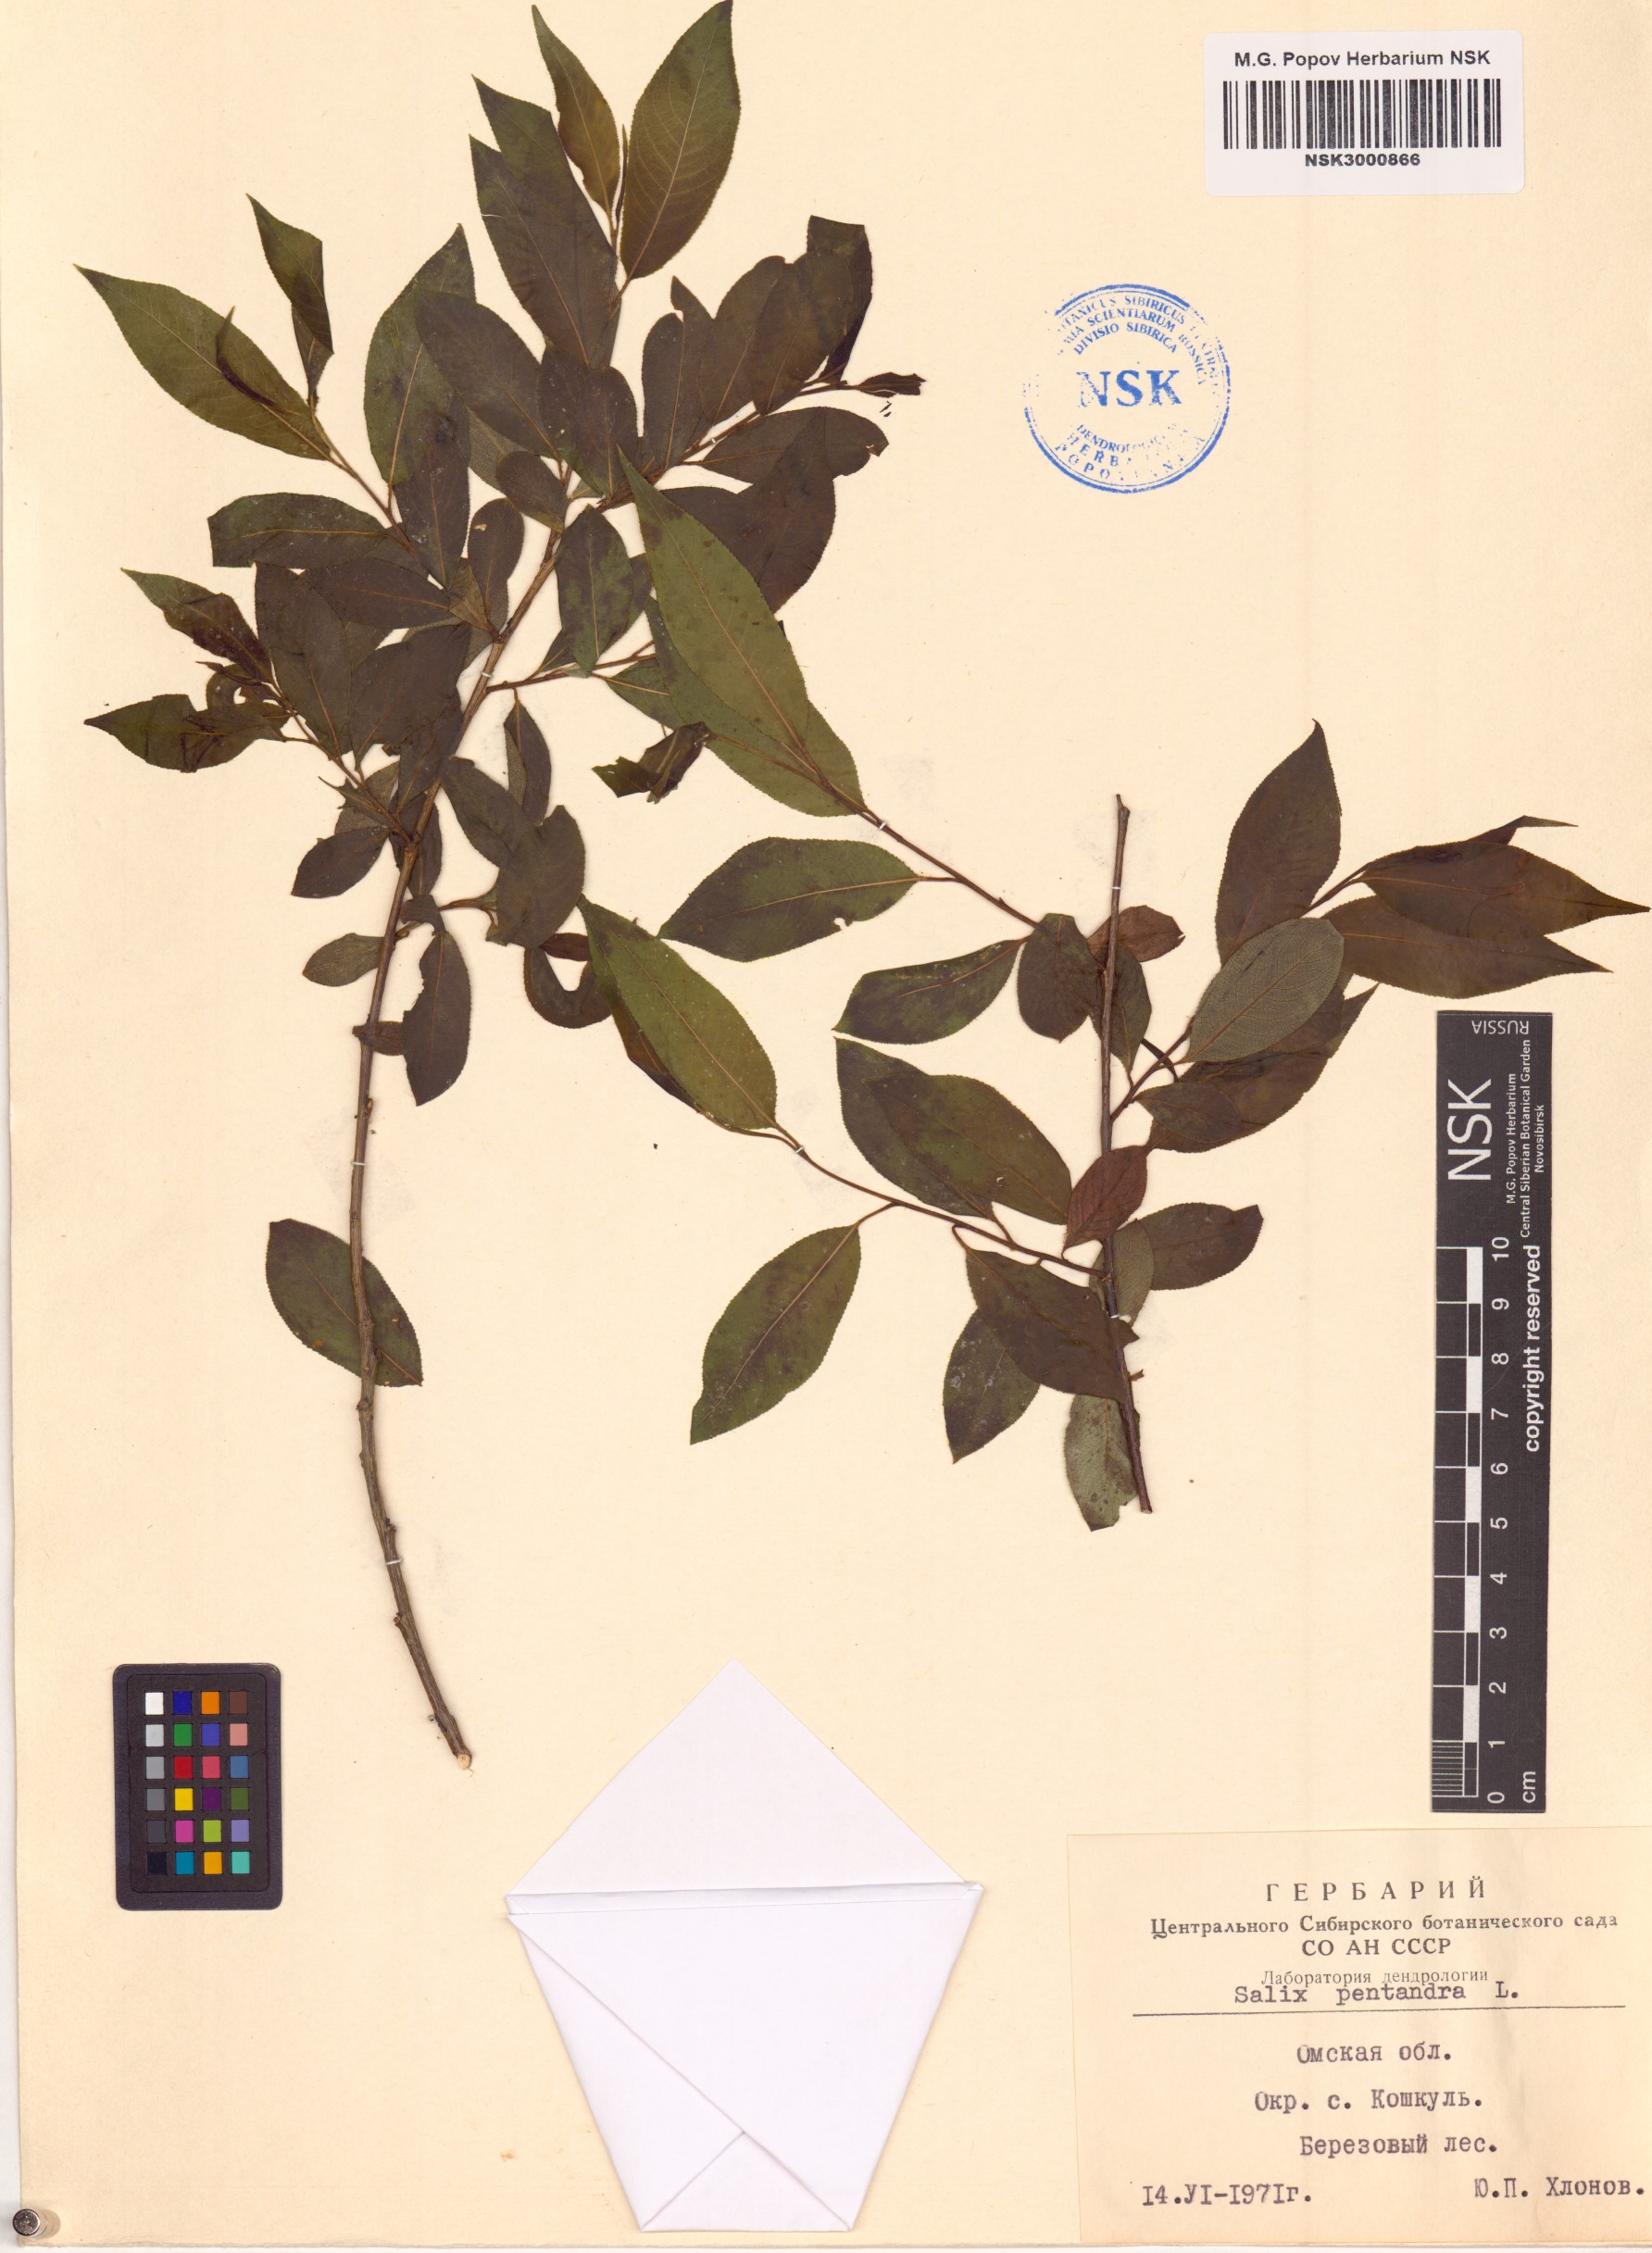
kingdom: Plantae
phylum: Tracheophyta
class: Magnoliopsida
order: Malpighiales
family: Salicaceae
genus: Salix
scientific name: Salix pentandra
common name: Bay willow
